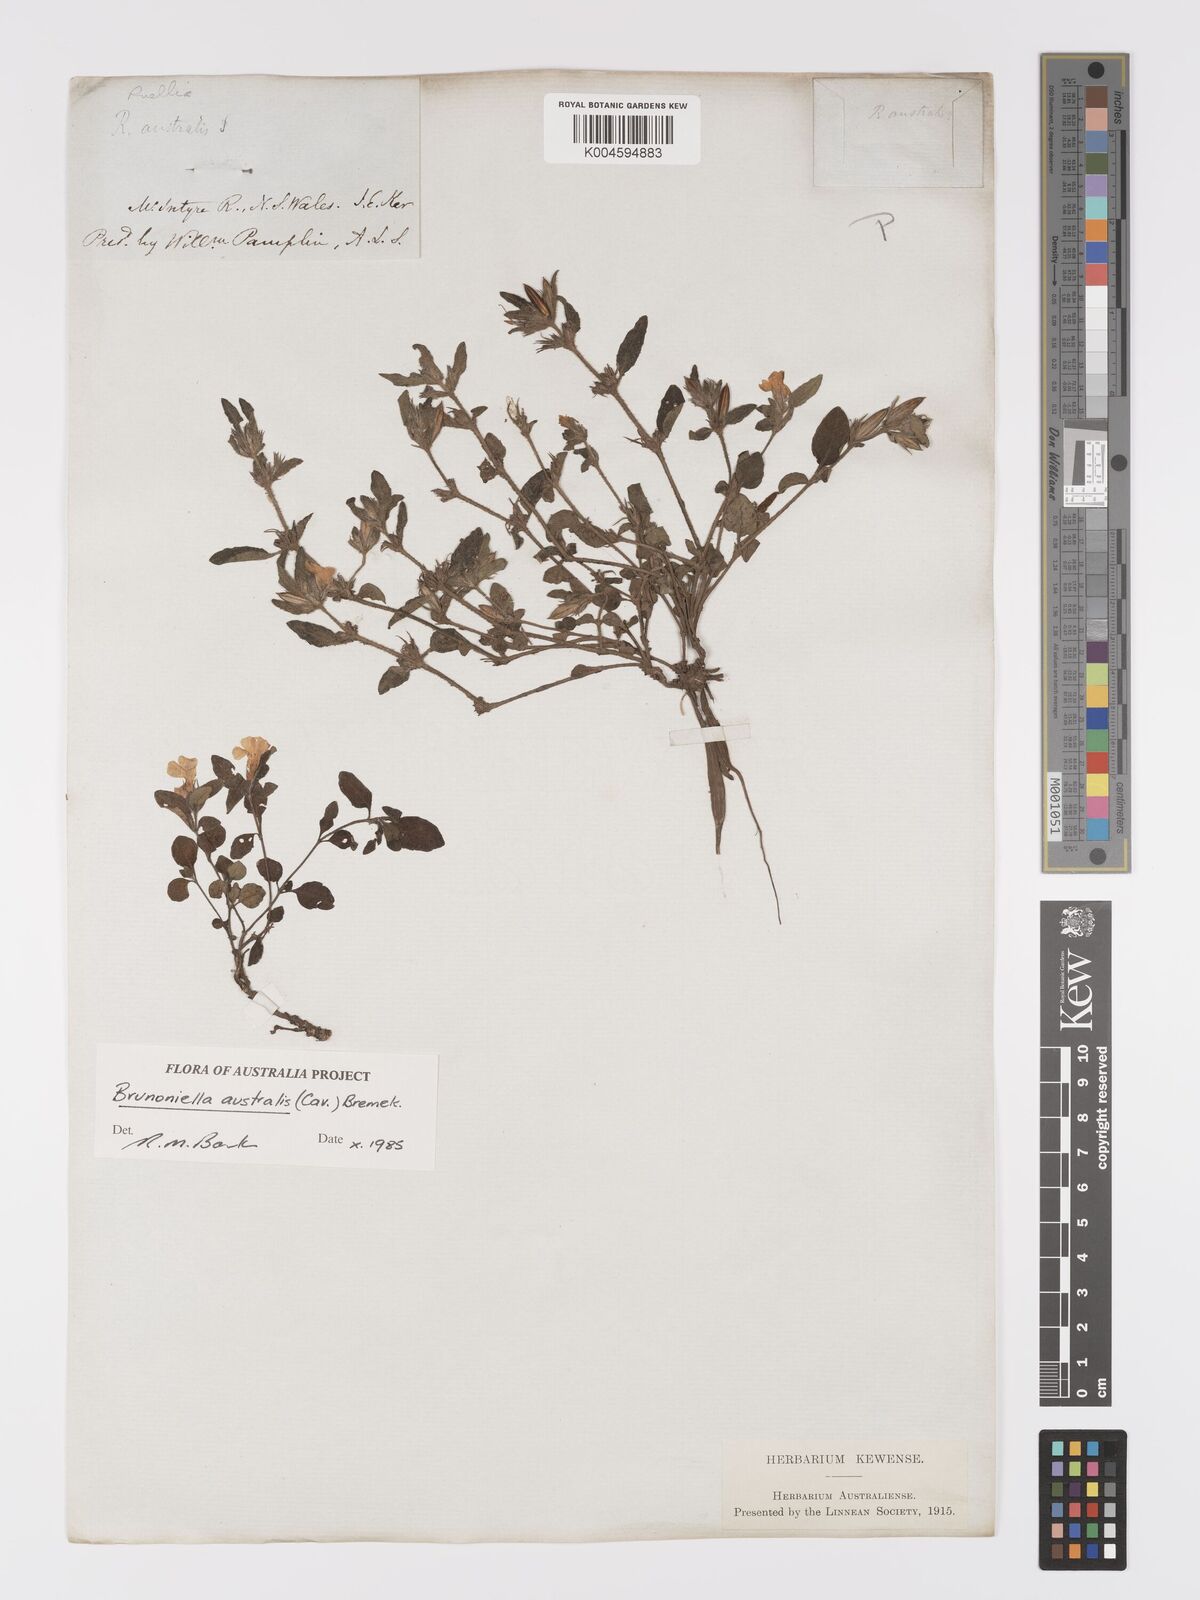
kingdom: Plantae
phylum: Tracheophyta
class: Magnoliopsida
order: Lamiales
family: Acanthaceae
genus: Brunoniella
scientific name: Brunoniella australis
